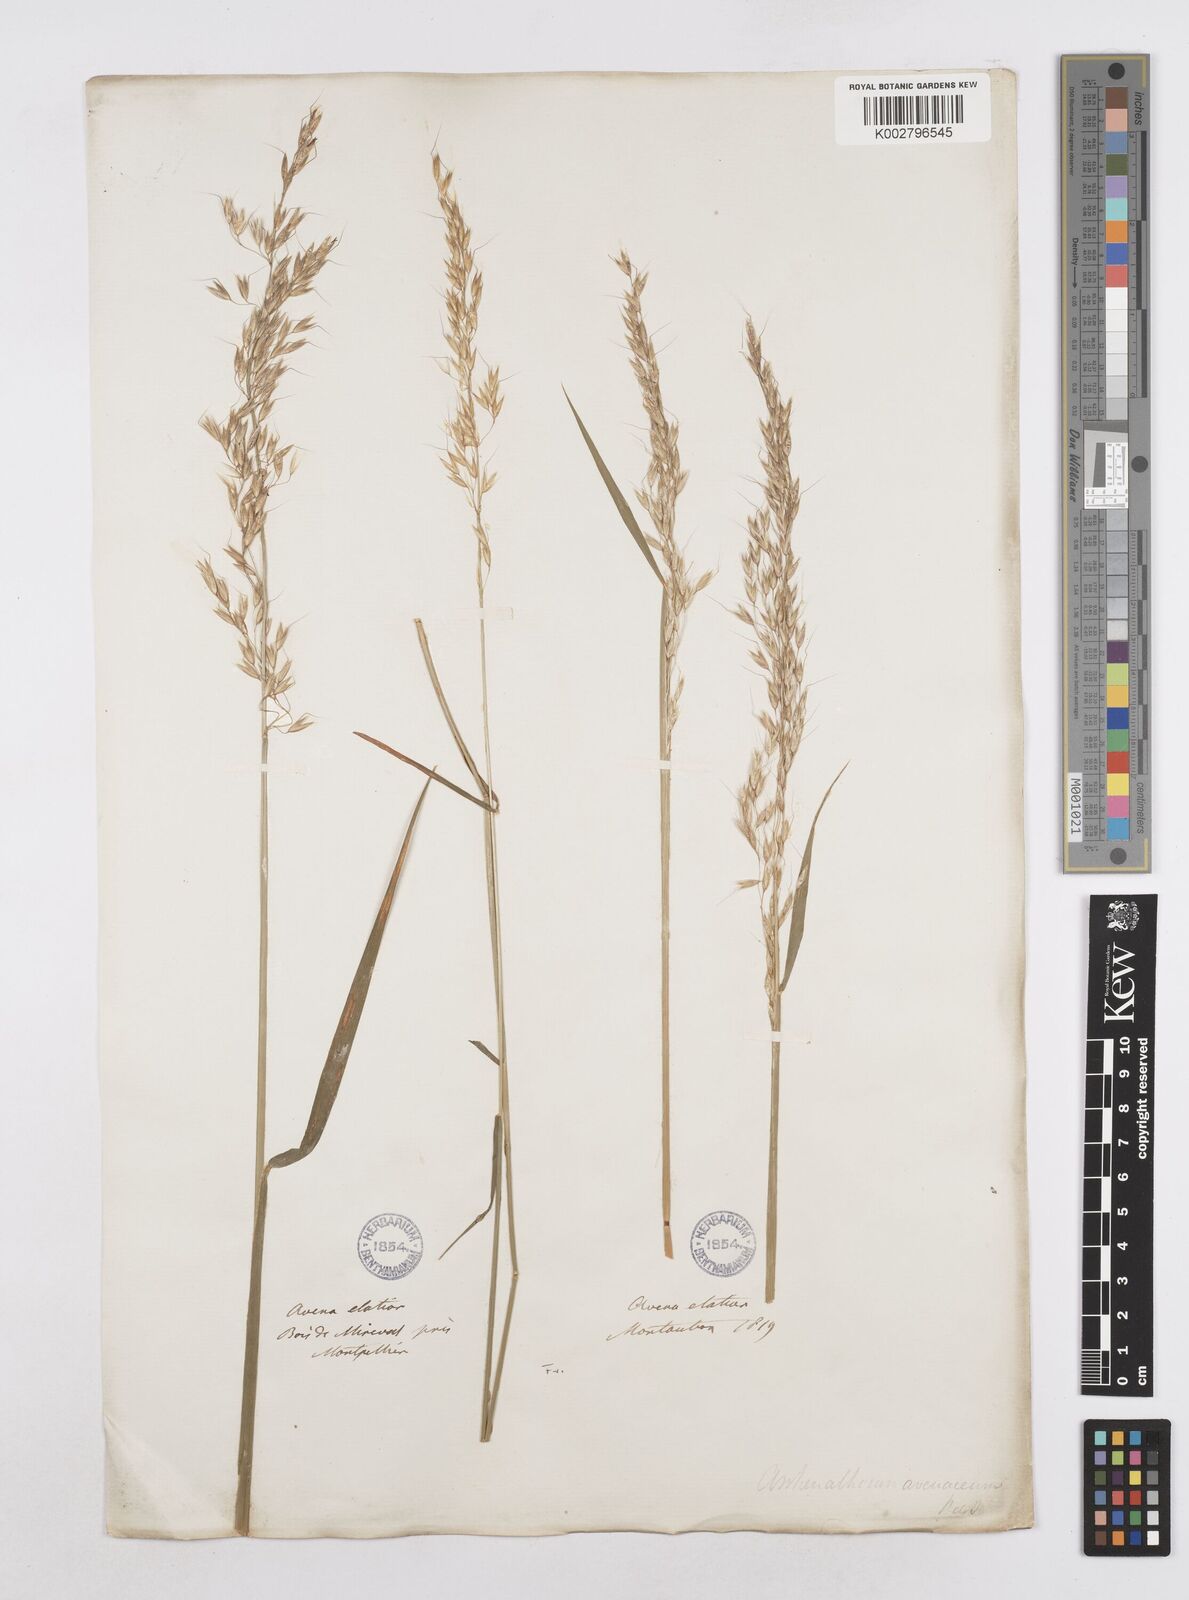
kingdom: Plantae
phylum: Tracheophyta
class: Liliopsida
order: Poales
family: Poaceae
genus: Arrhenatherum
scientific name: Arrhenatherum elatius
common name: Tall oatgrass
